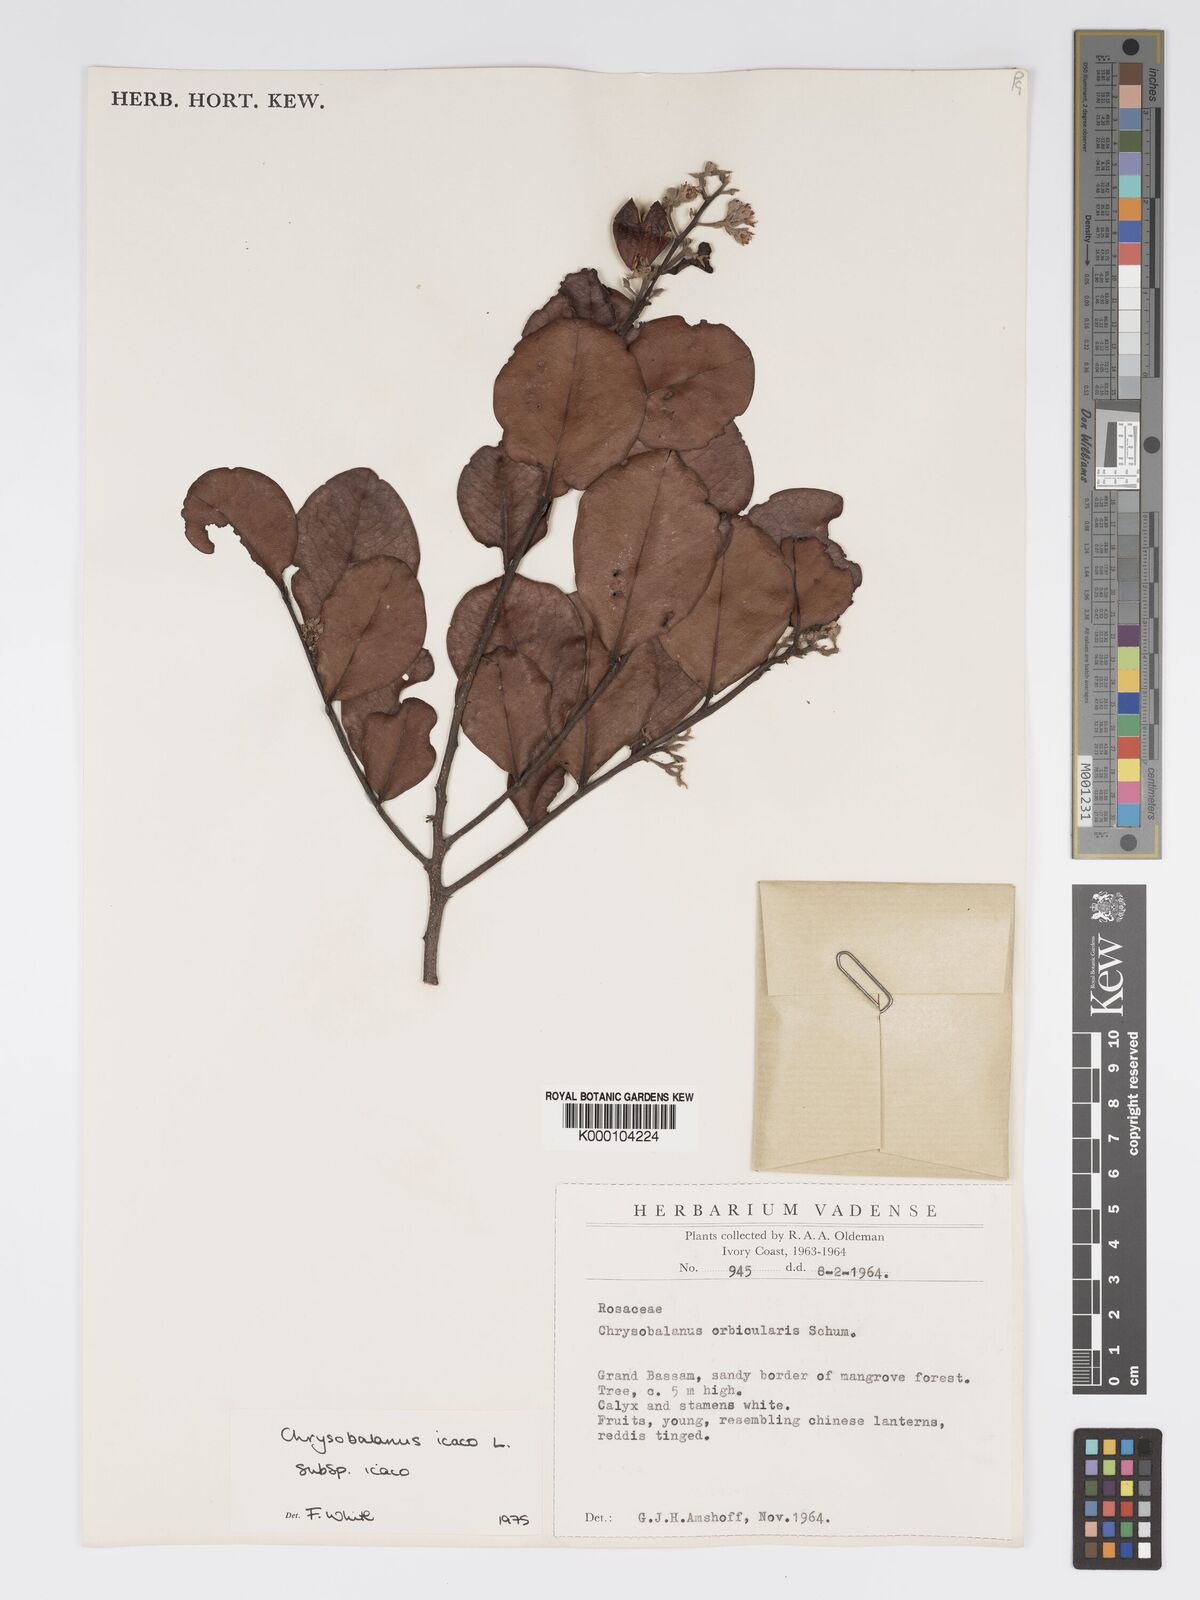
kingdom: Plantae
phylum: Tracheophyta
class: Magnoliopsida
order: Malpighiales
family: Chrysobalanaceae
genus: Chrysobalanus
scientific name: Chrysobalanus icaco
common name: Coco plum
